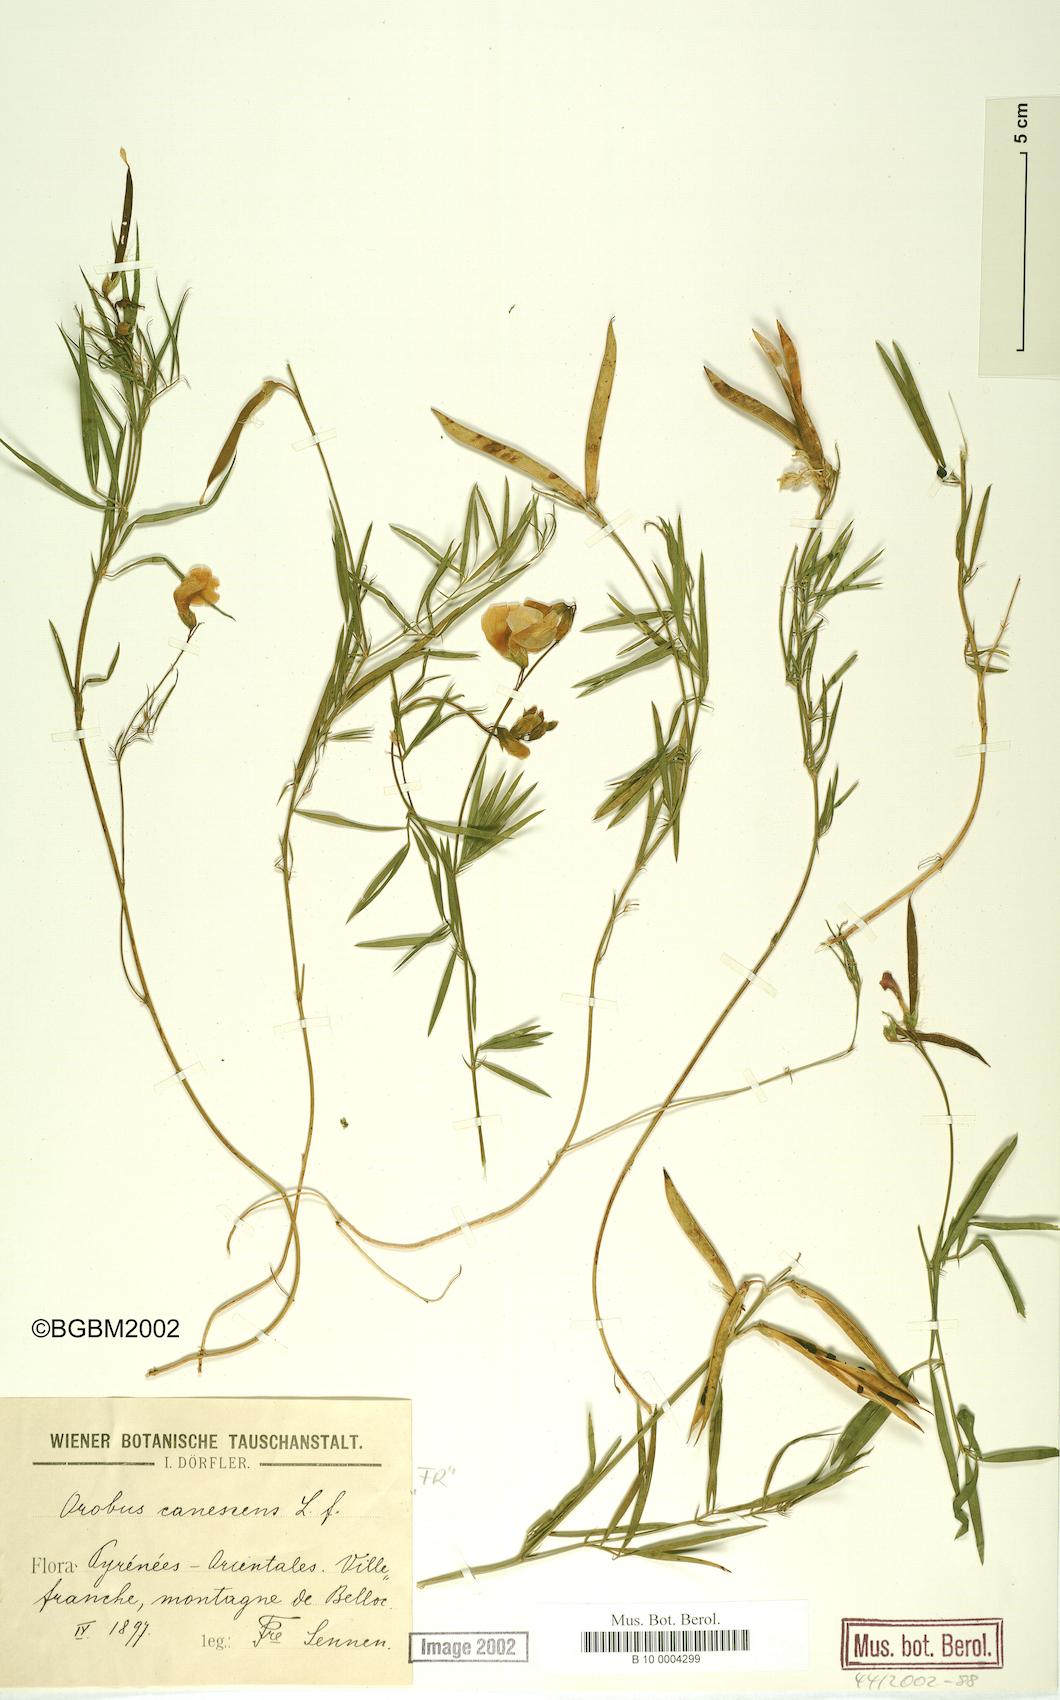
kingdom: Plantae
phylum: Tracheophyta
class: Magnoliopsida
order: Fabales
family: Fabaceae
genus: Lathyrus
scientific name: Lathyrus filiformis
